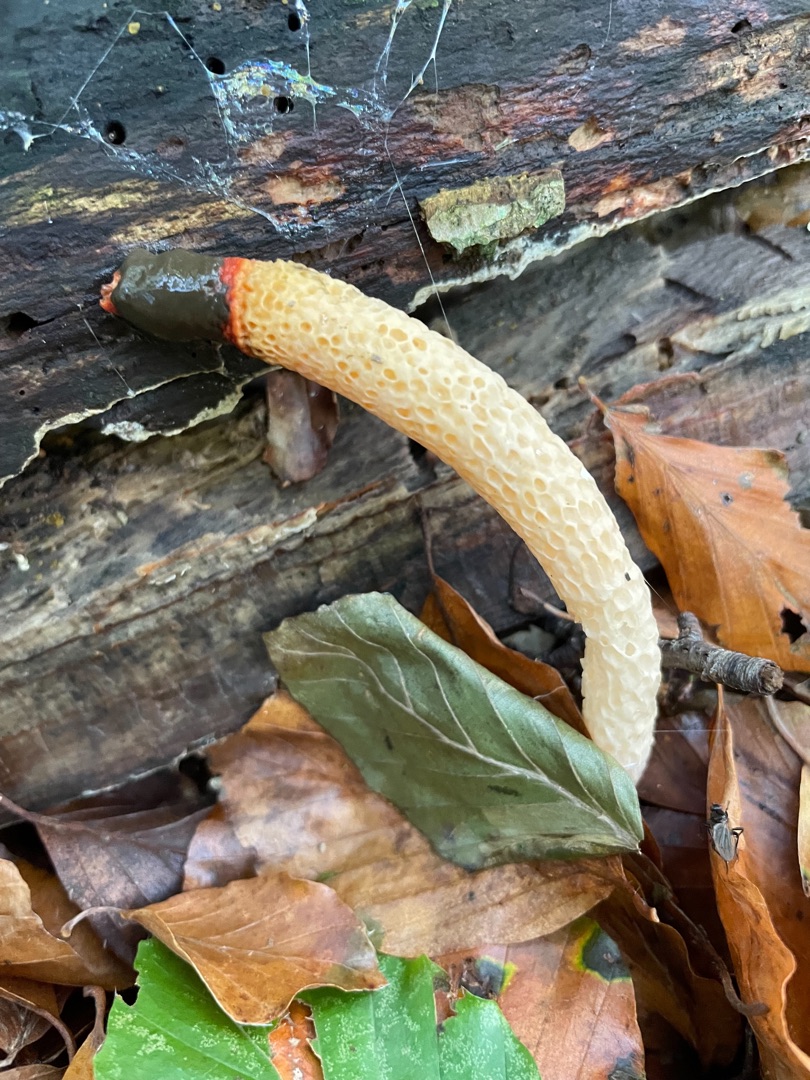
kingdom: Fungi
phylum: Basidiomycota
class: Agaricomycetes
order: Phallales
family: Phallaceae
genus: Mutinus
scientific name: Mutinus caninus
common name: Hunde-stinksvamp
